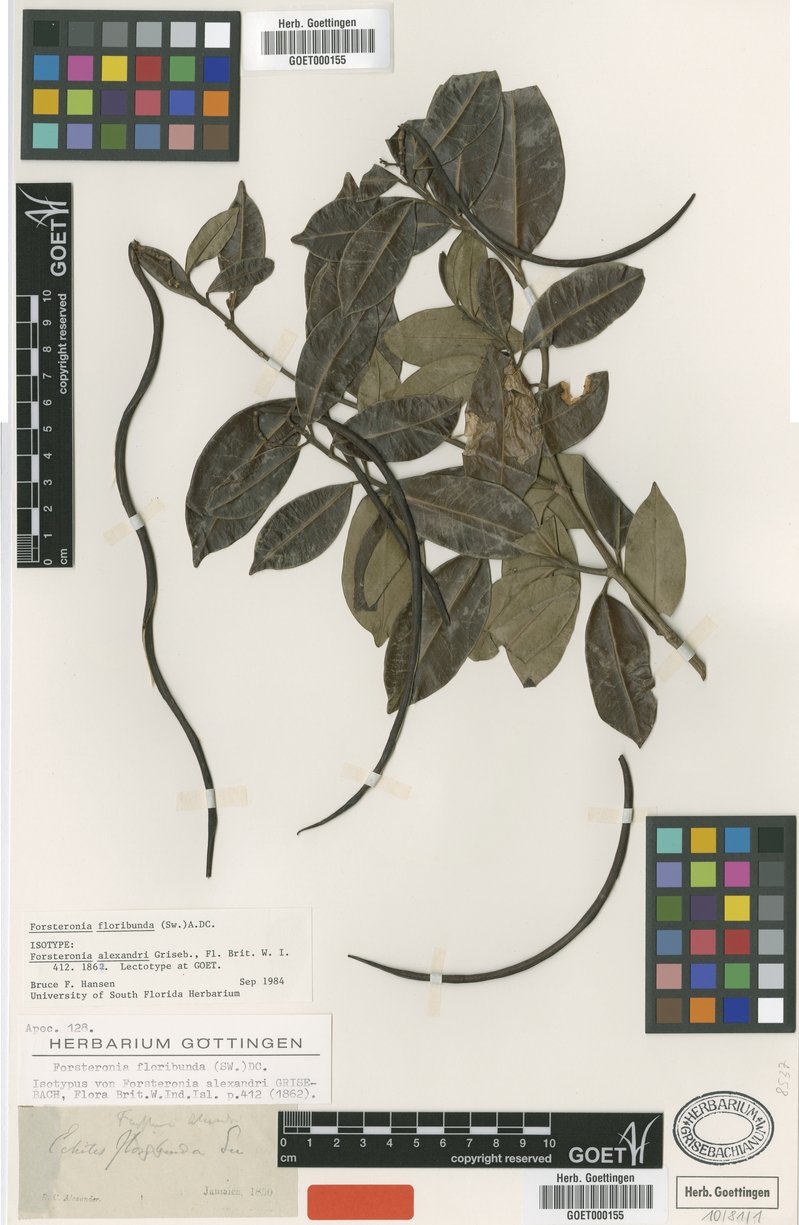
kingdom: Plantae
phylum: Tracheophyta
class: Magnoliopsida
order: Gentianales
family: Apocynaceae
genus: Pinochia
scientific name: Pinochia floribunda
